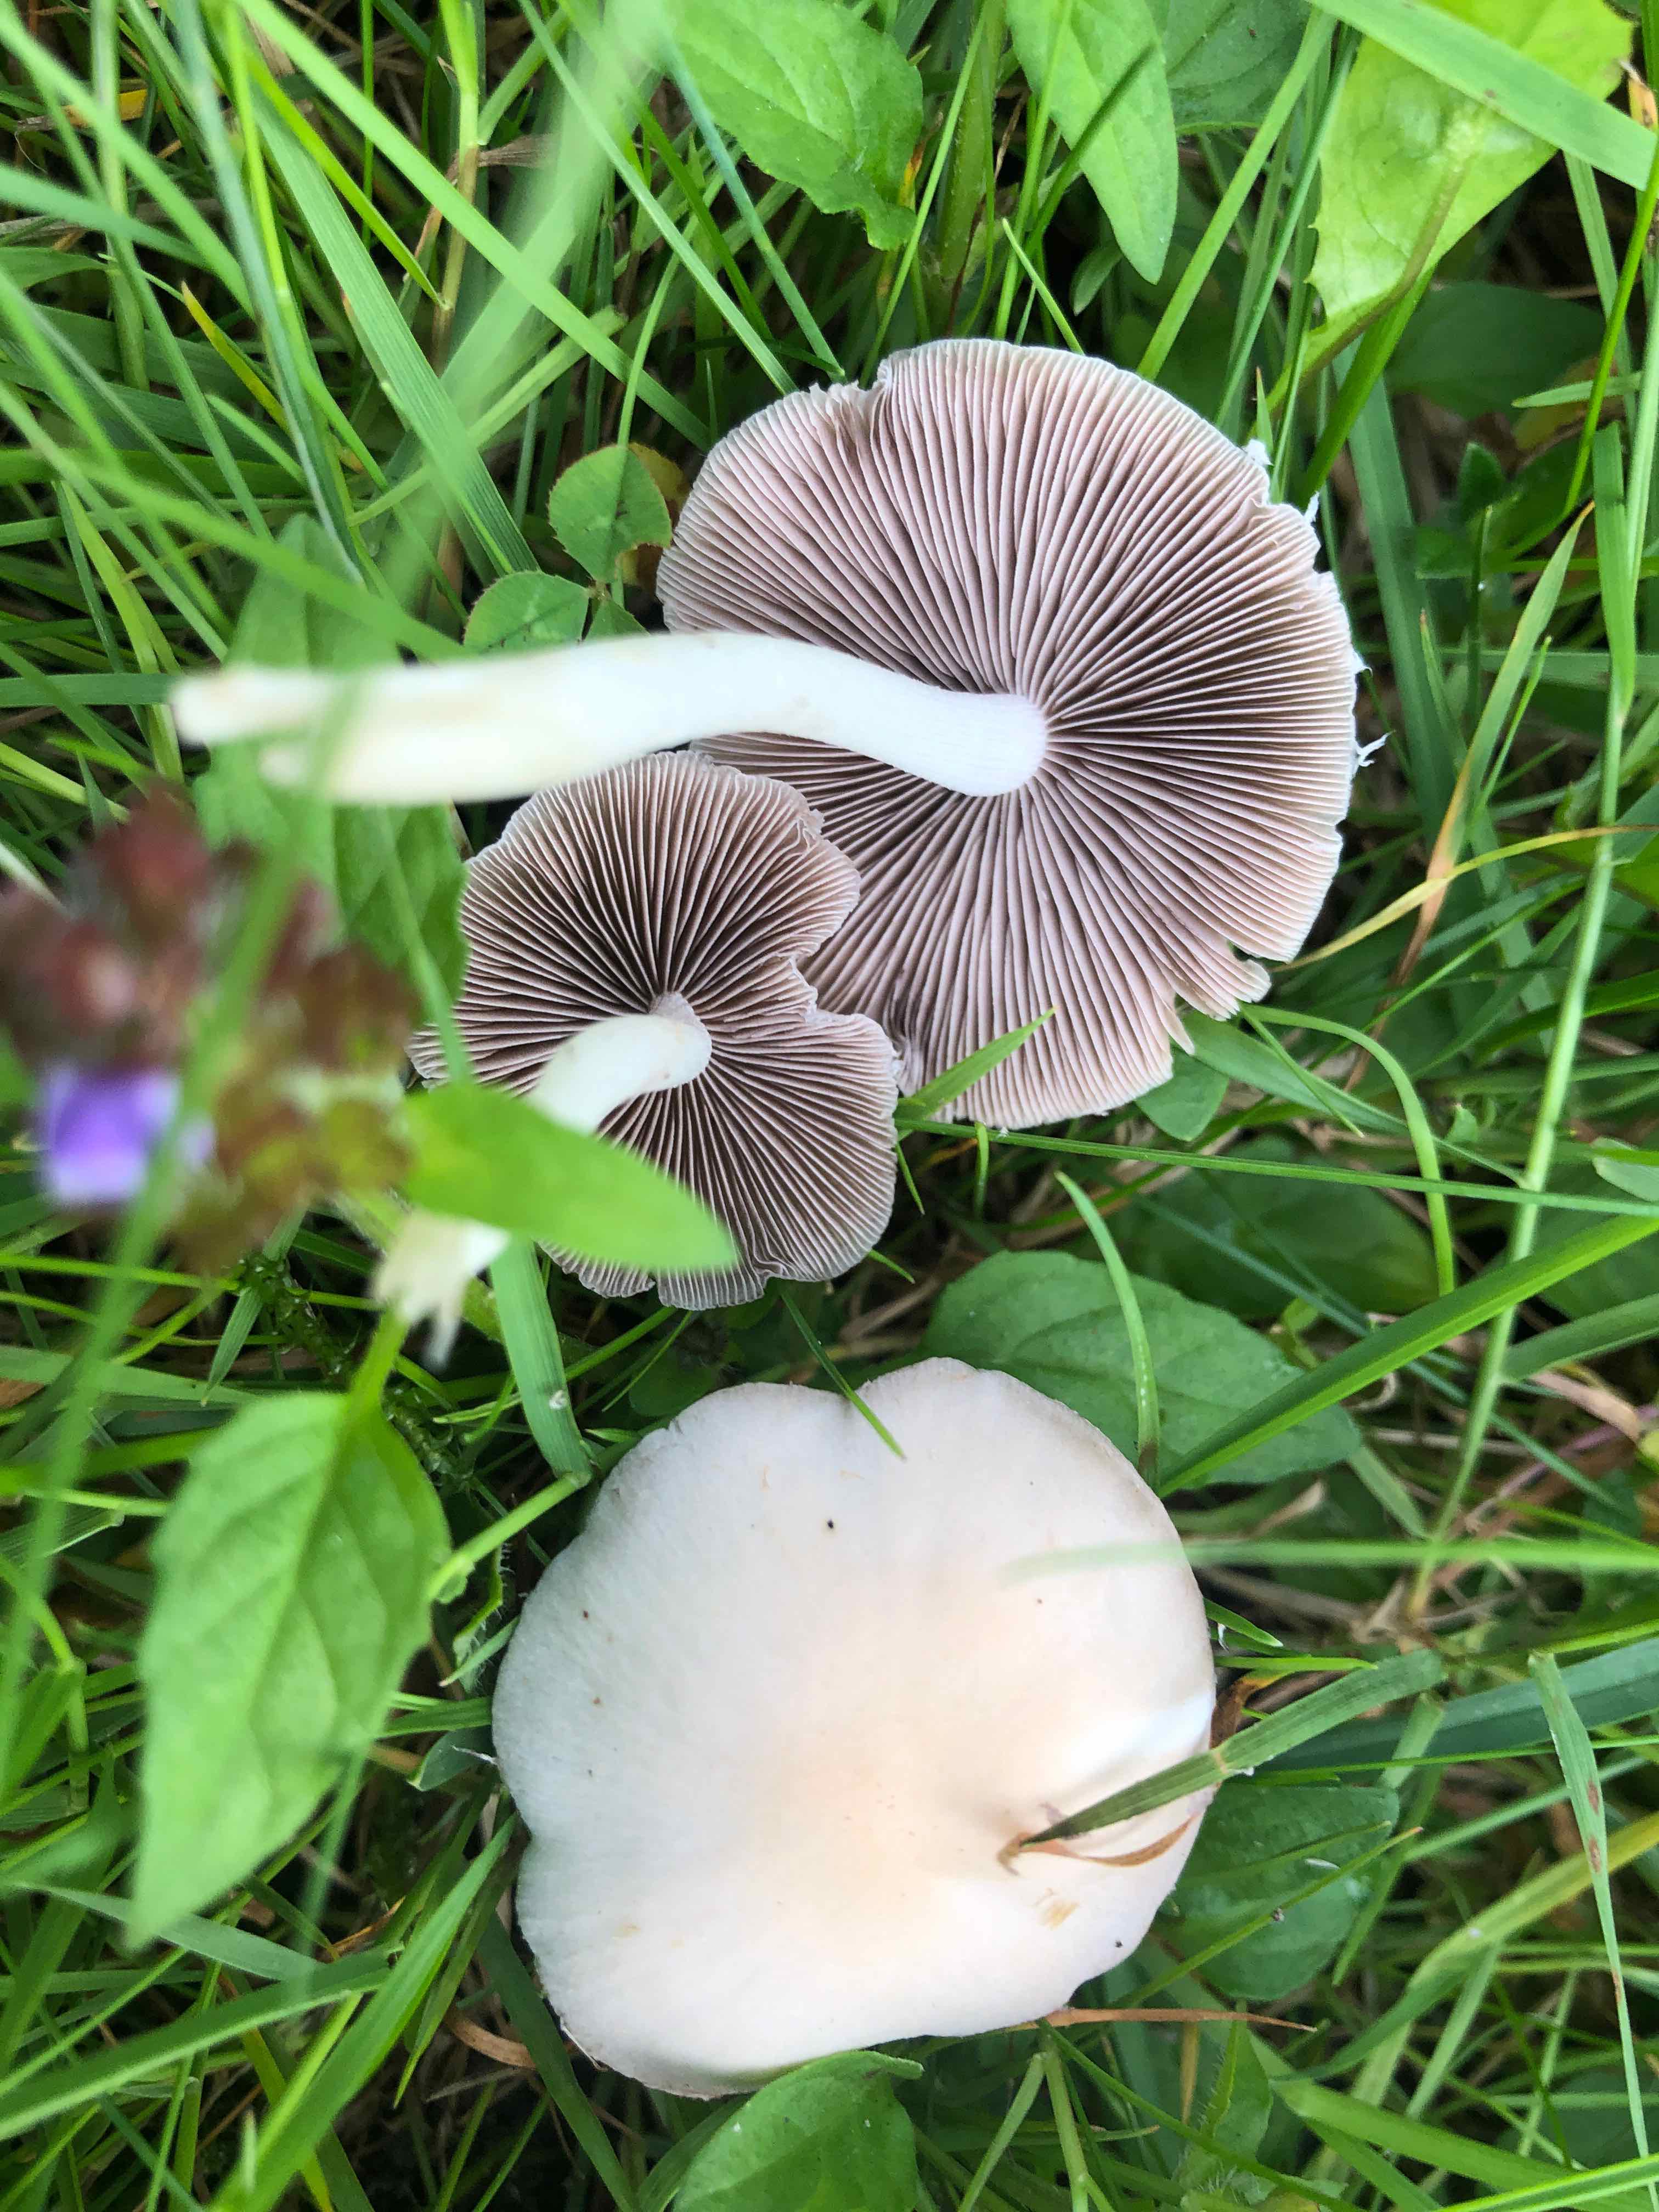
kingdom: Fungi
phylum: Basidiomycota
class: Agaricomycetes
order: Agaricales
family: Psathyrellaceae
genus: Candolleomyces
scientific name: Candolleomyces candolleanus
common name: Candolles mørkhat
